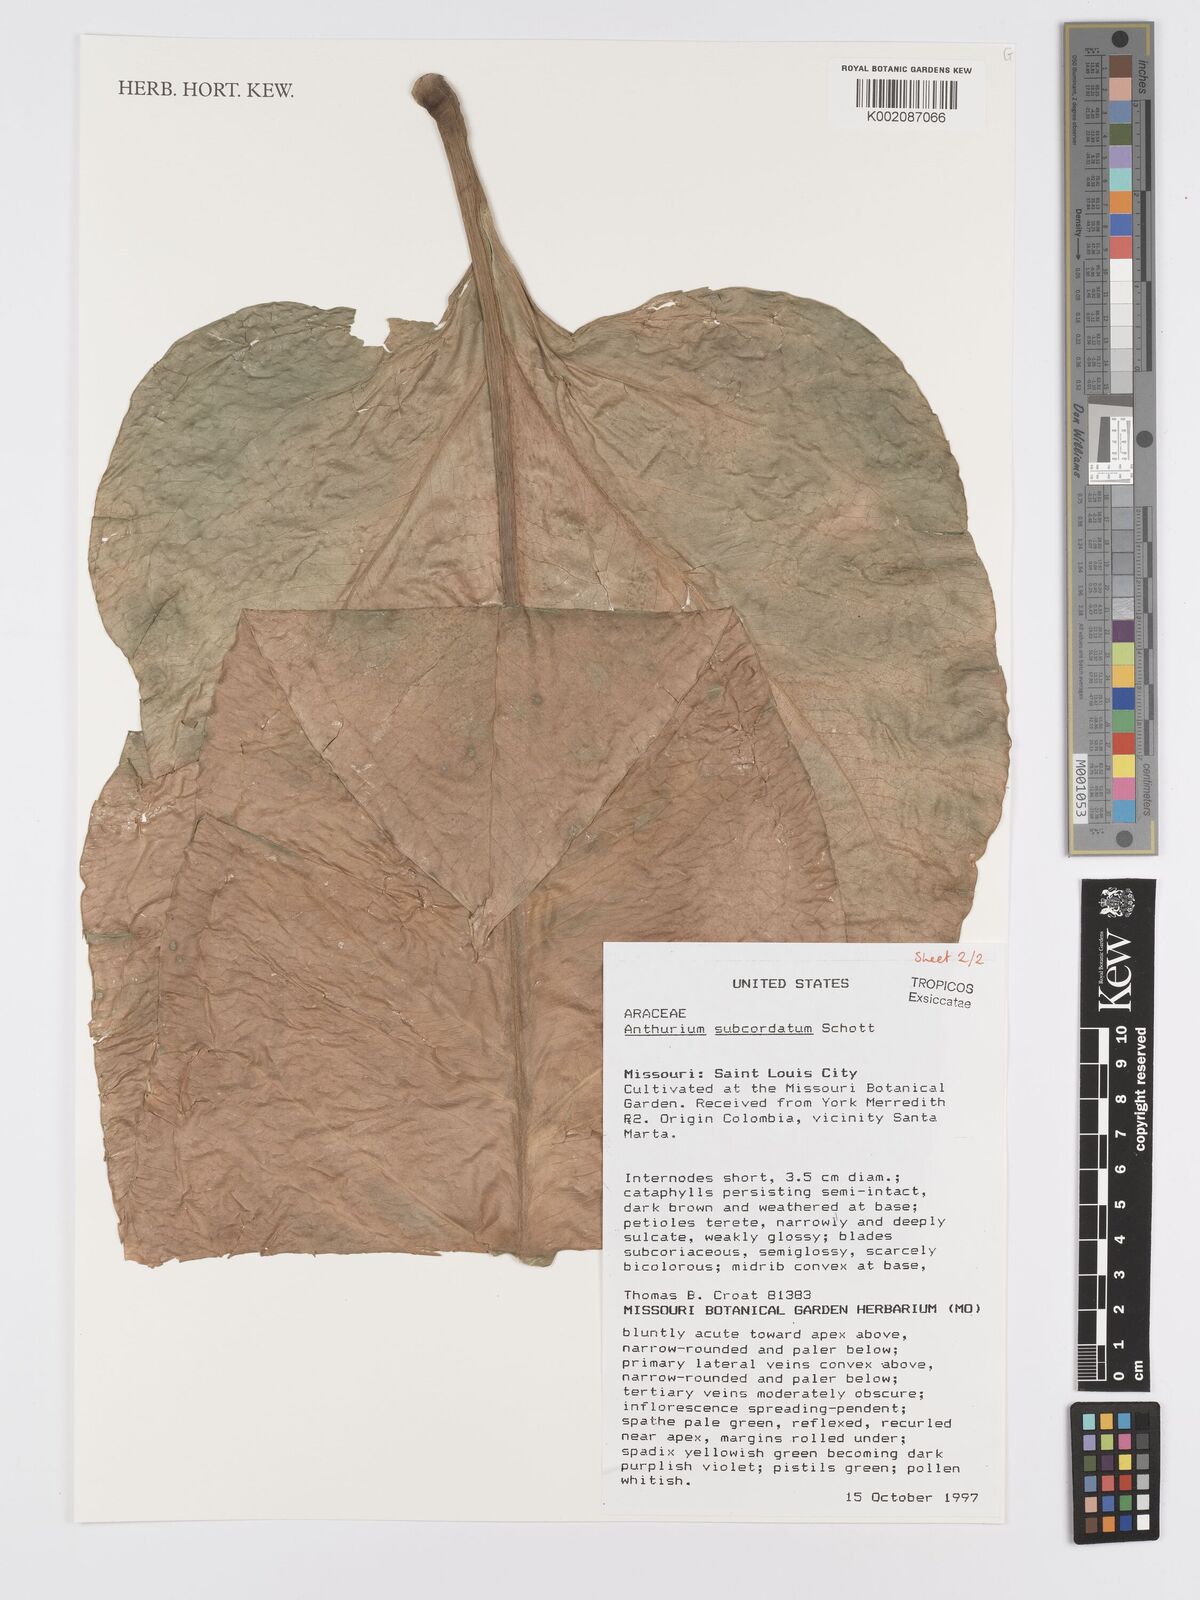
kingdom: Plantae
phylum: Tracheophyta
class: Liliopsida
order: Alismatales
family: Araceae
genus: Anthurium
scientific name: Anthurium subcordatum
